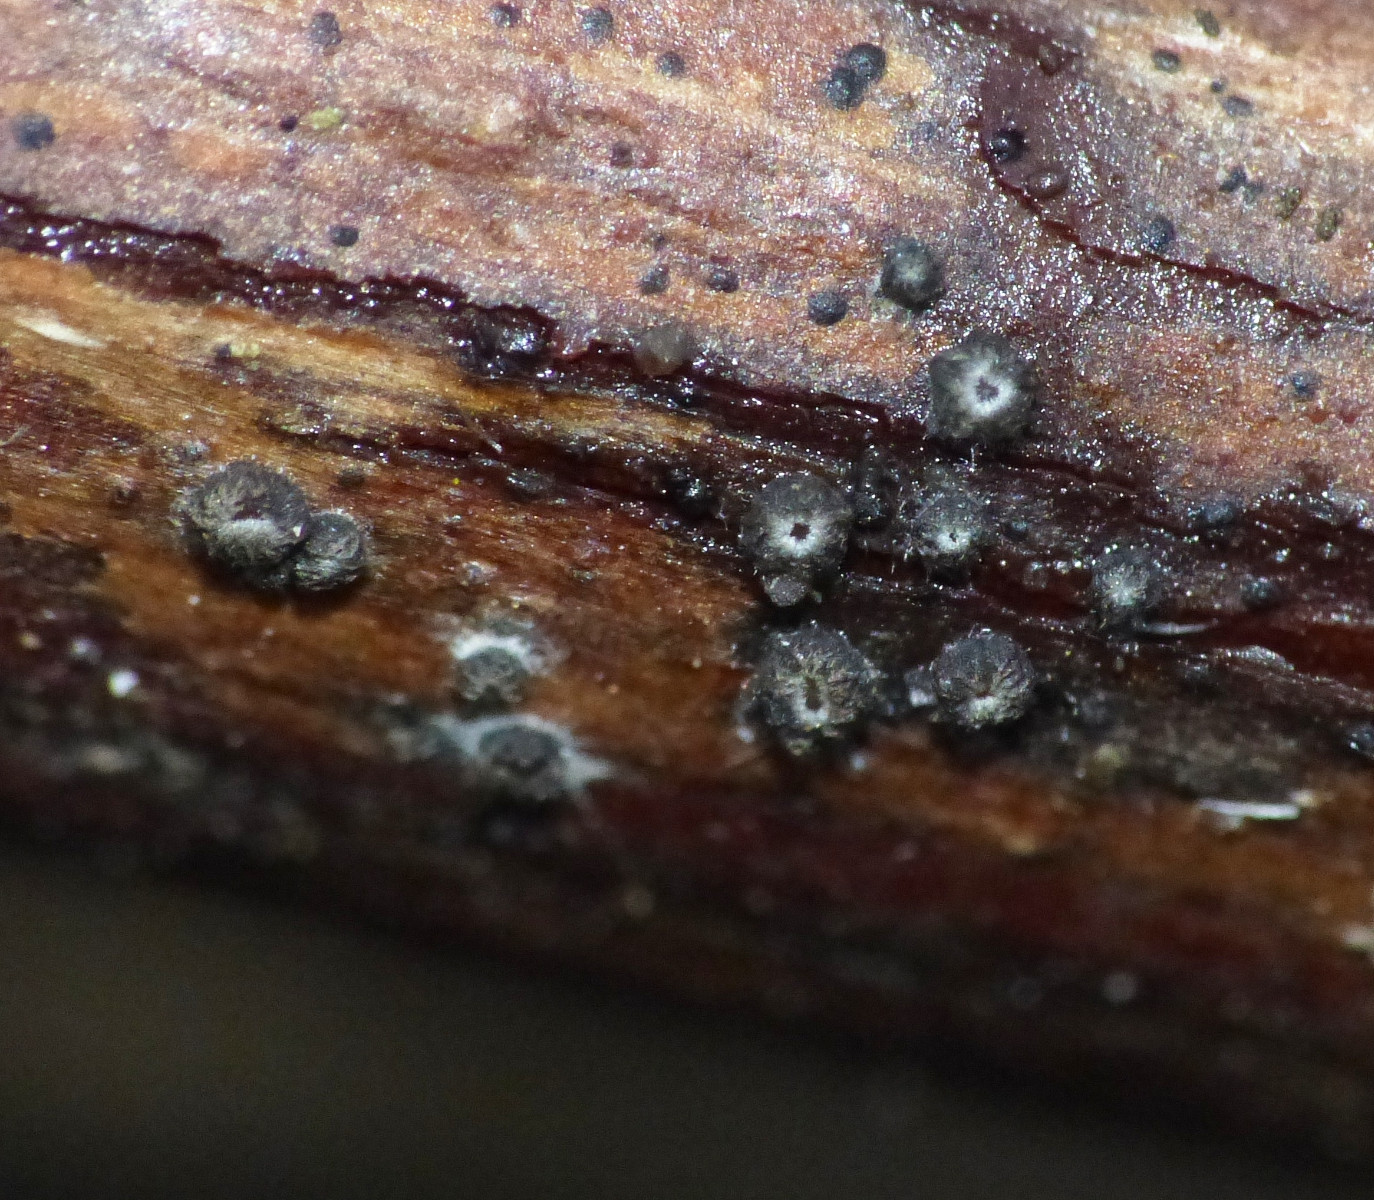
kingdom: Fungi
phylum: Ascomycota
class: Leotiomycetes
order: Helotiales
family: Ploettnerulaceae
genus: Pyrenopeziza
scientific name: Pyrenopeziza rubi
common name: hindbær-kerneskive
